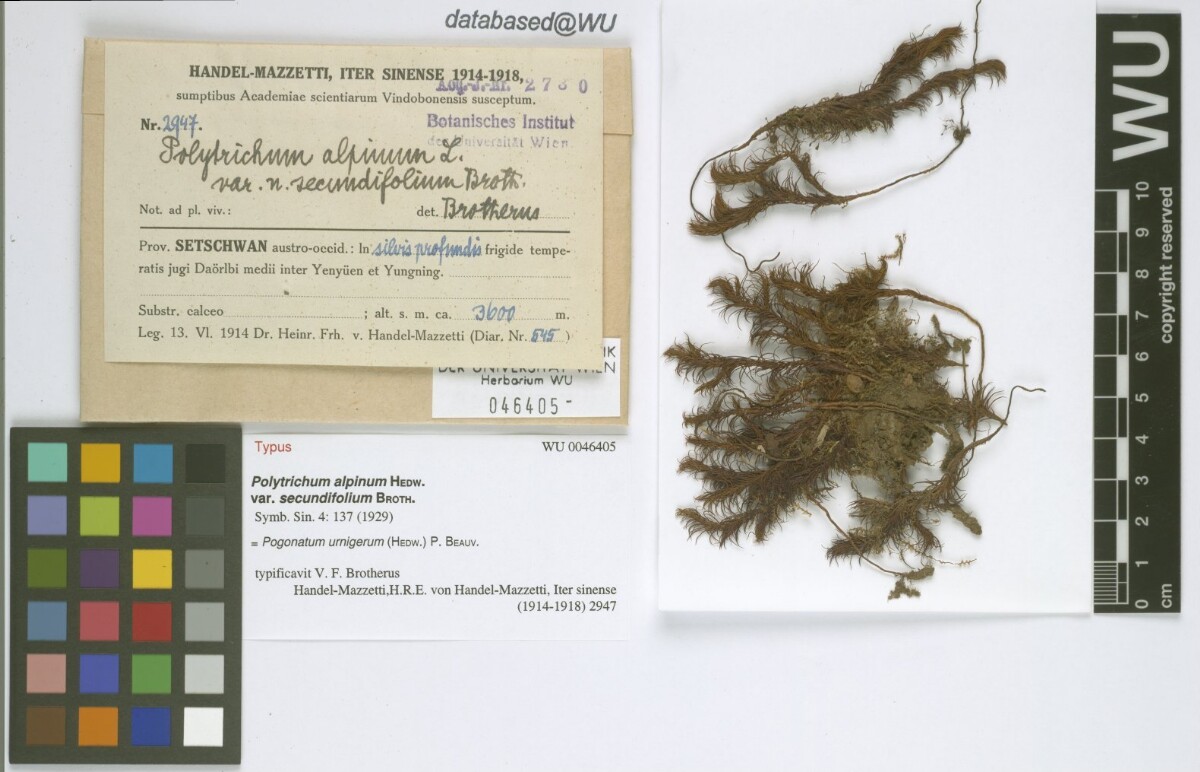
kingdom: Plantae
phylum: Bryophyta
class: Polytrichopsida
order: Polytrichales
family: Polytrichaceae
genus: Pogonatum
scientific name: Pogonatum urnigerum
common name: Urn hair moss
